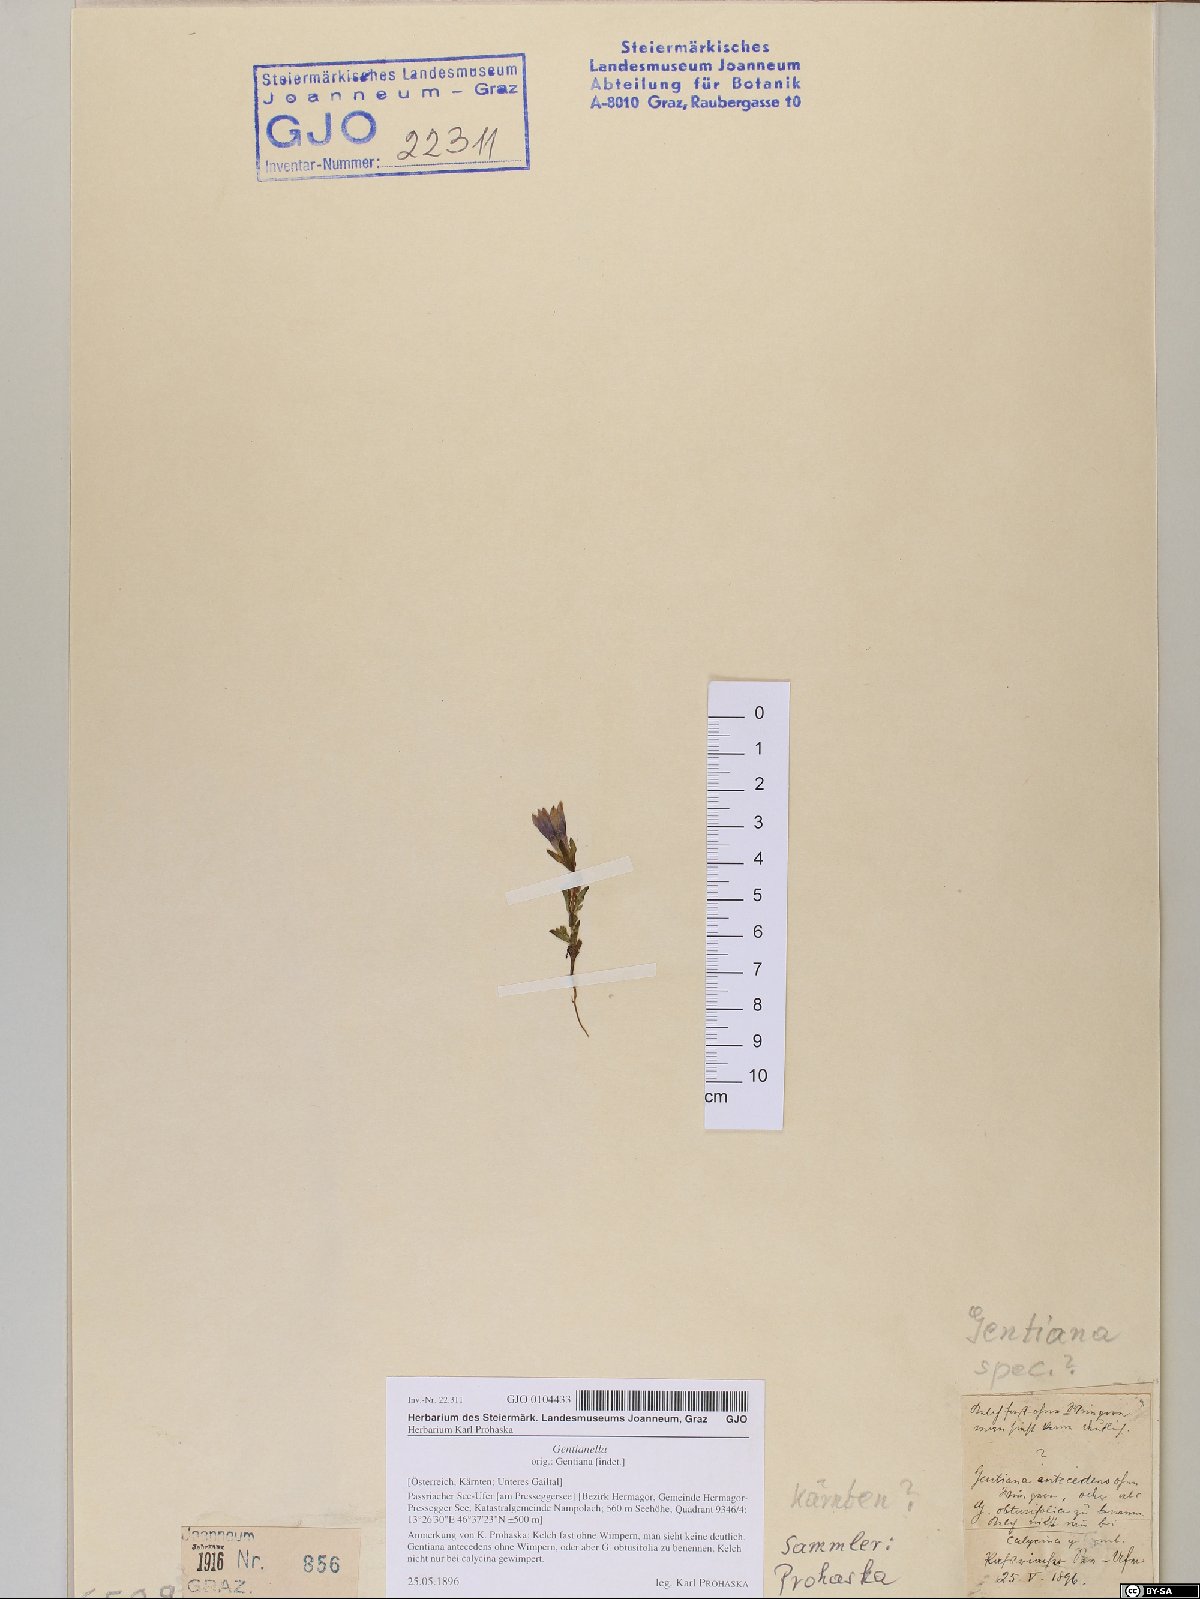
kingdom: Plantae
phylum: Tracheophyta
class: Magnoliopsida
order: Gentianales
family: Gentianaceae
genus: Gentianella
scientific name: Gentianella
